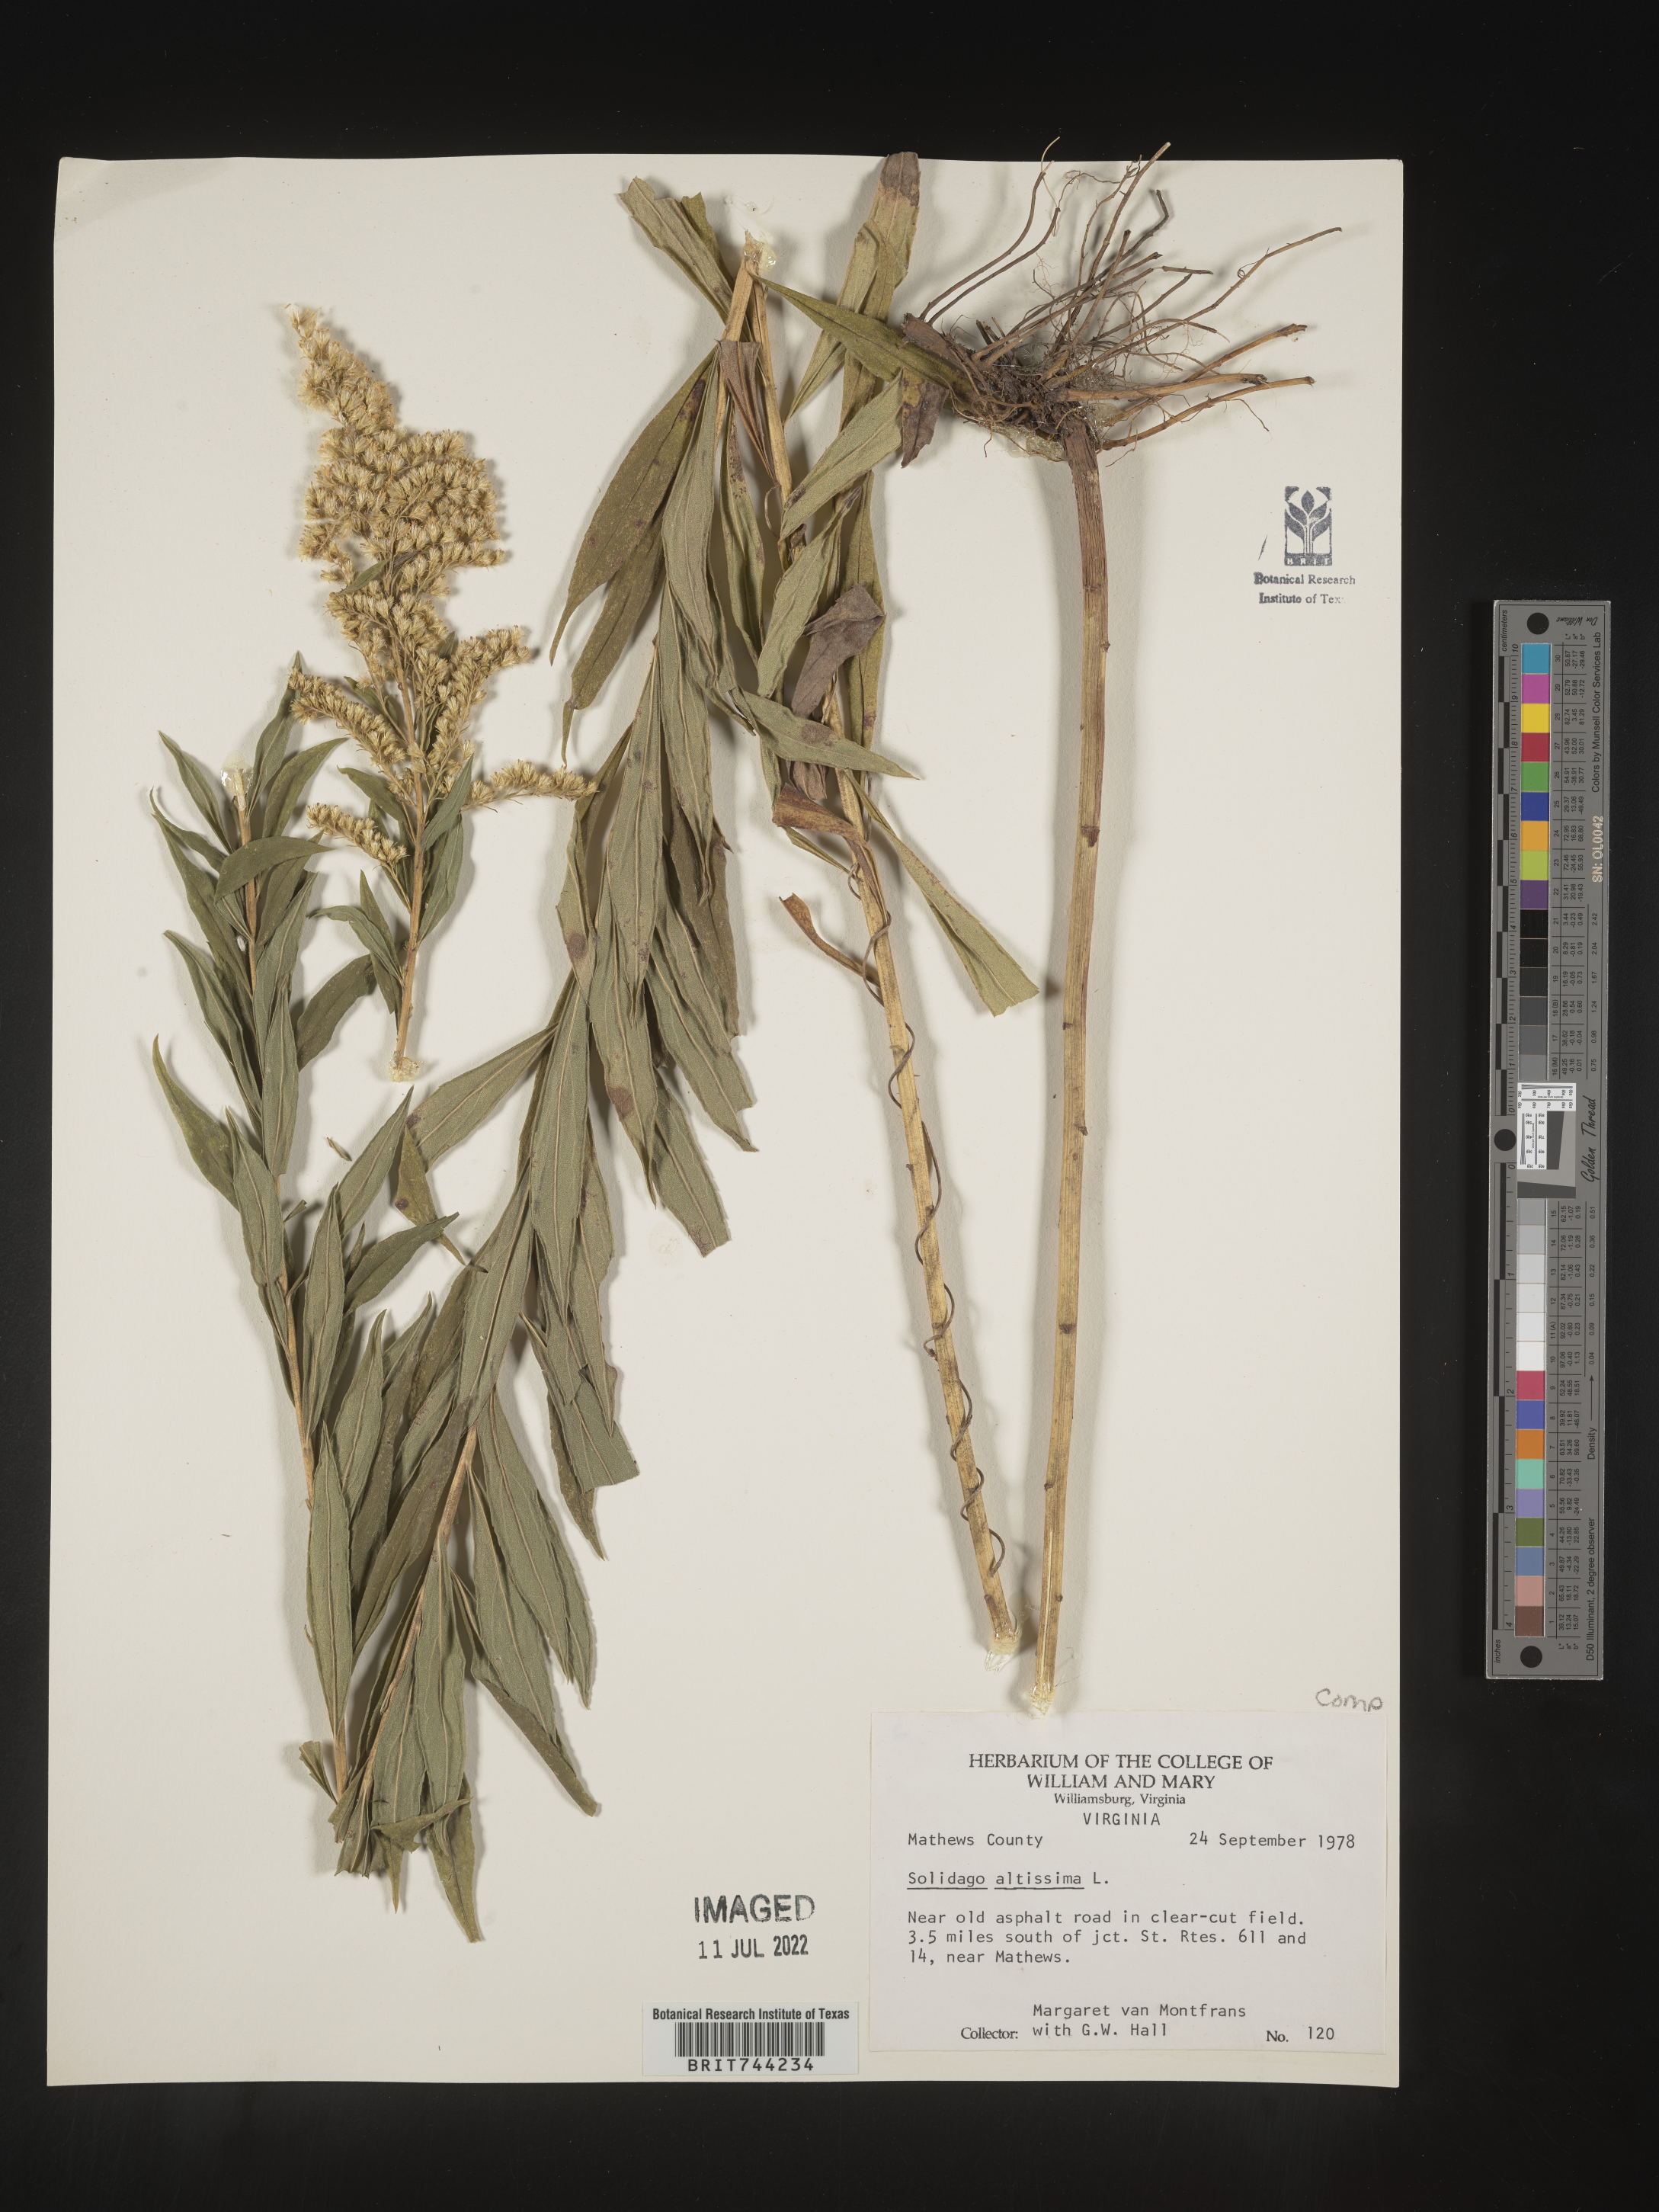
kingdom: Plantae
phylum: Tracheophyta
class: Magnoliopsida
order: Asterales
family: Asteraceae
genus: Solidago
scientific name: Solidago altissima
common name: Late goldenrod
